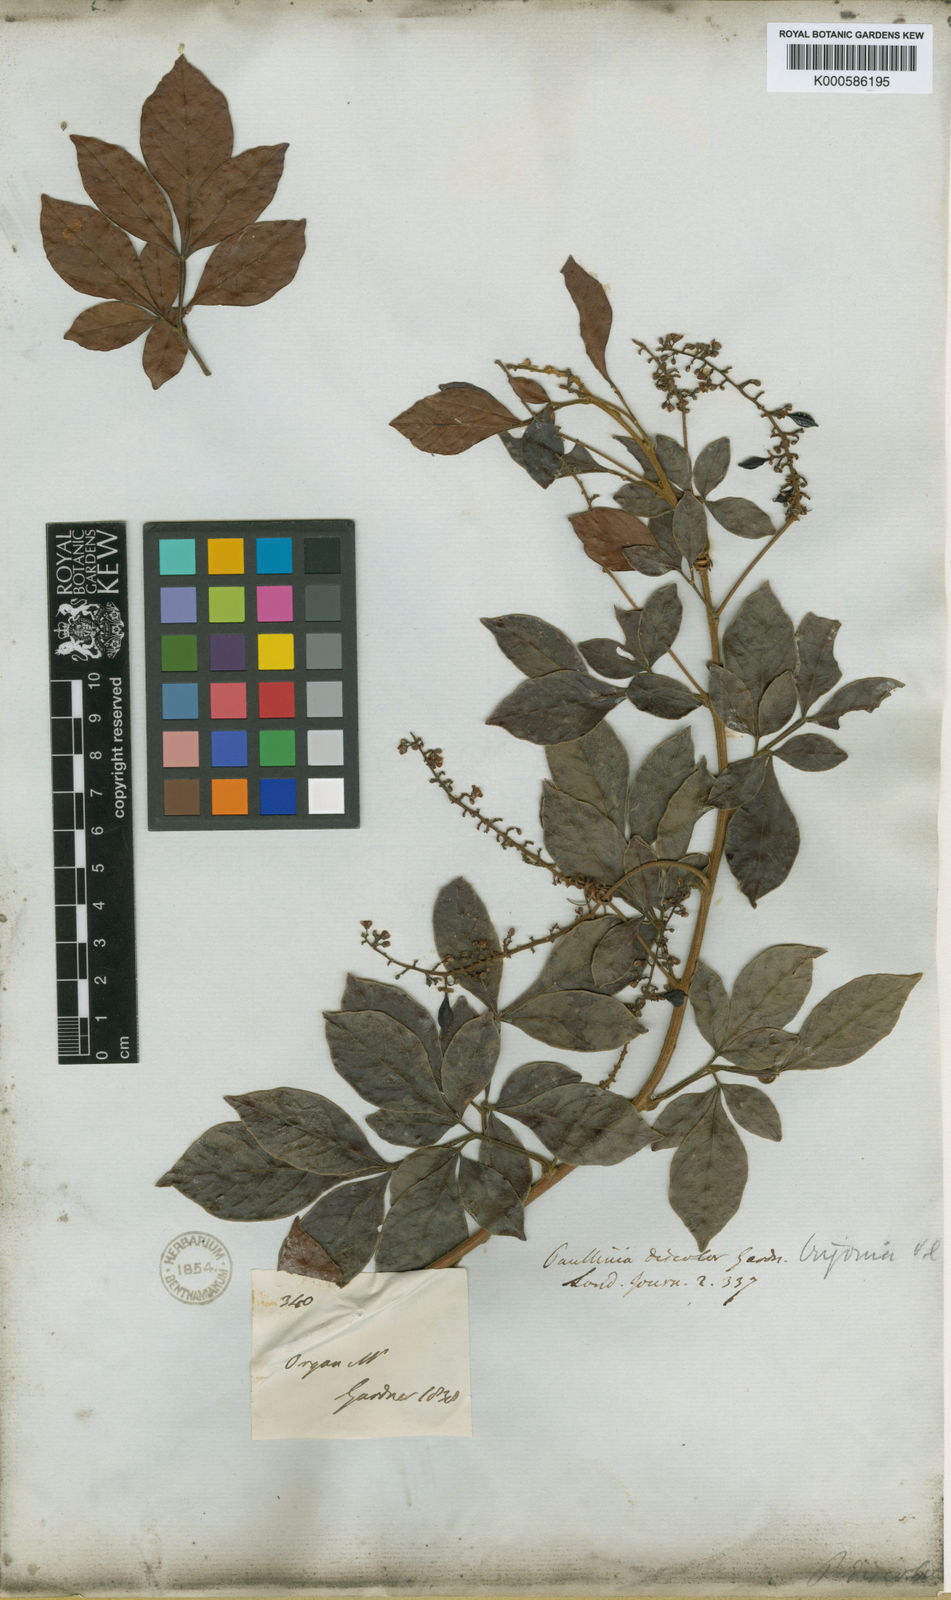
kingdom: Plantae
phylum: Tracheophyta
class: Magnoliopsida
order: Sapindales
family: Sapindaceae
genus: Paullinia
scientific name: Paullinia trigonia
